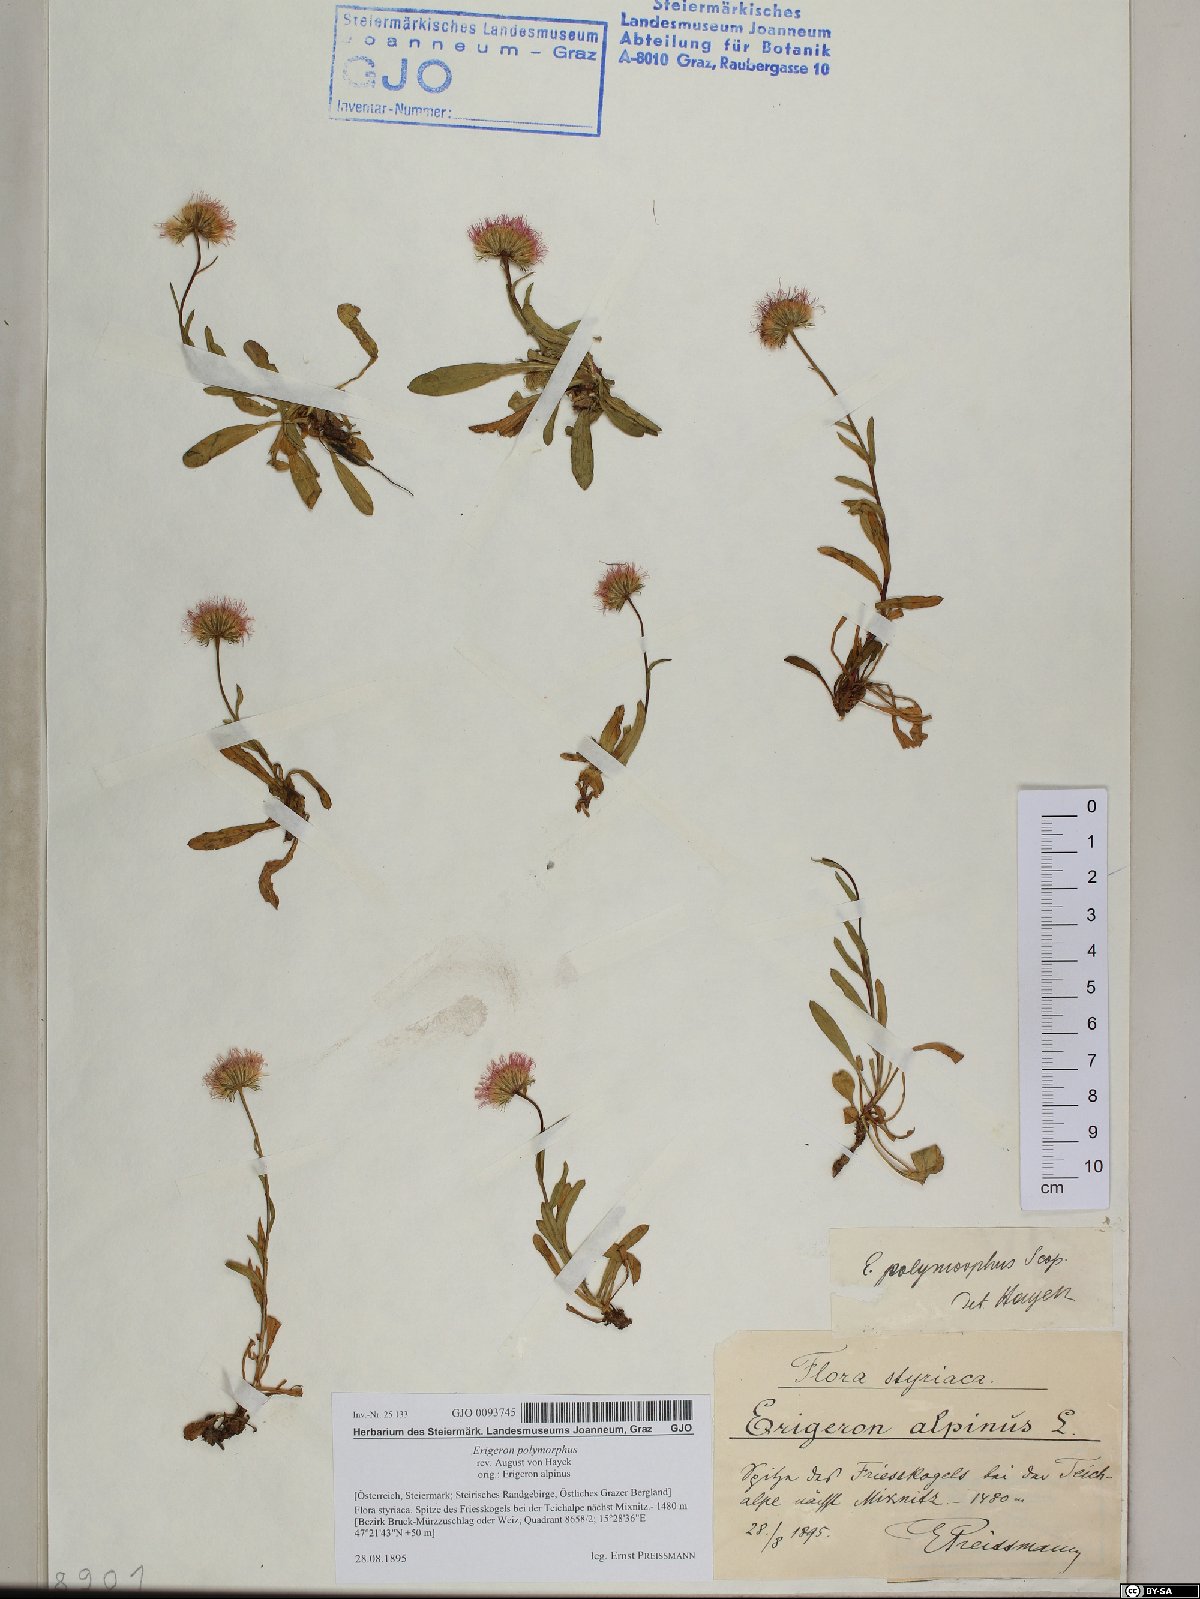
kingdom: Plantae
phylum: Tracheophyta
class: Magnoliopsida
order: Asterales
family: Asteraceae
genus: Erigeron
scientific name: Erigeron alpinus
